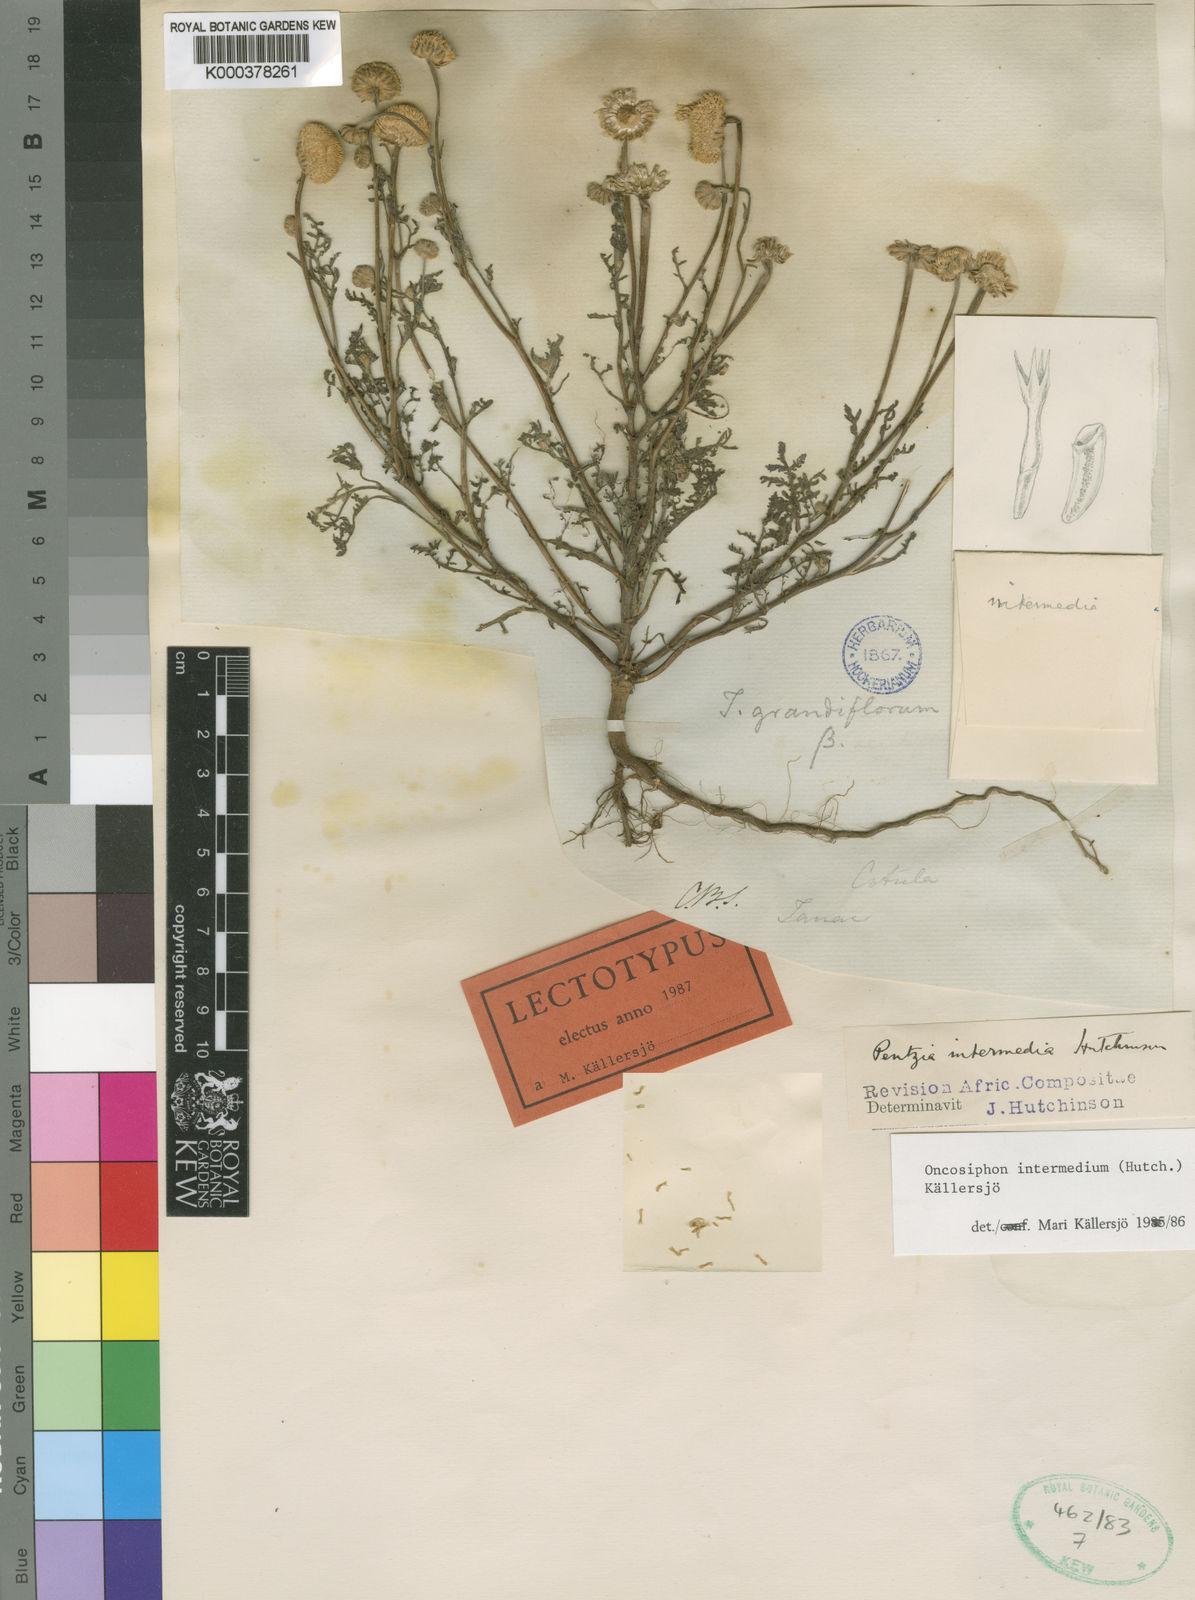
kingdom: Plantae
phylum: Tracheophyta
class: Magnoliopsida
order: Asterales
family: Asteraceae
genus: Oncosiphon
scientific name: Oncosiphon
